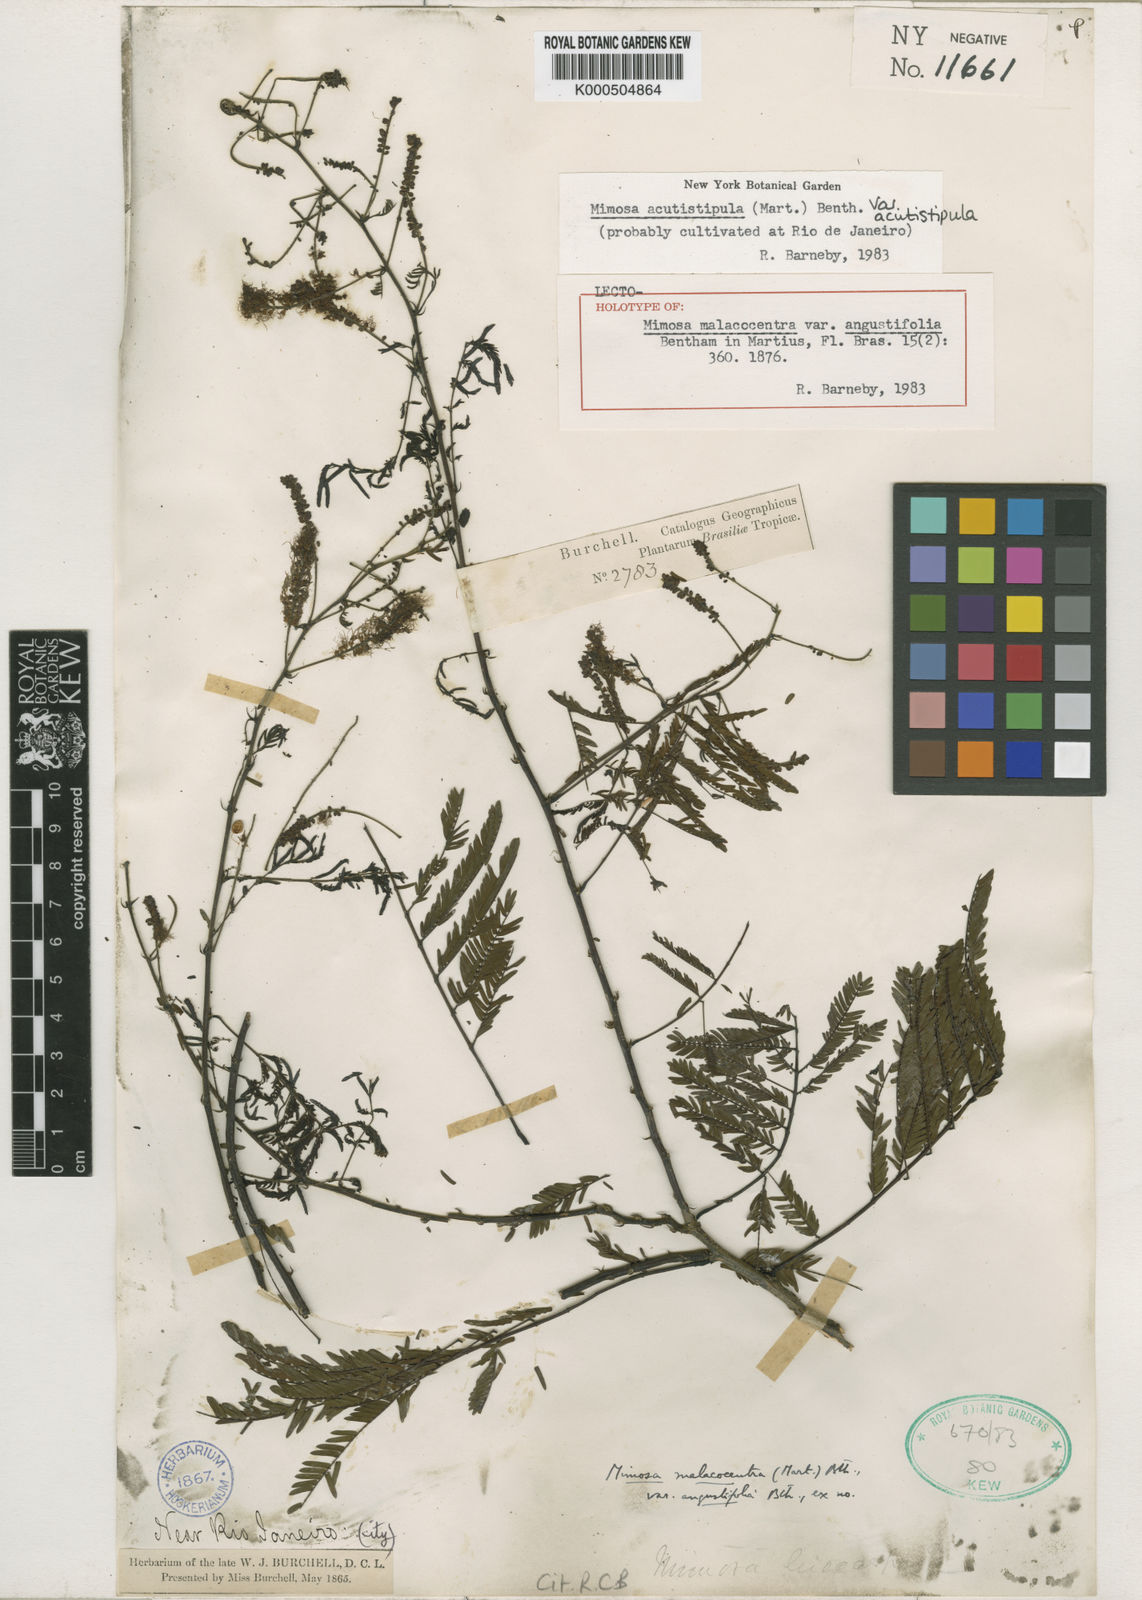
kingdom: Plantae
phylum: Tracheophyta
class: Magnoliopsida
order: Fabales
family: Fabaceae
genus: Mimosa
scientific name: Mimosa acutistipula
